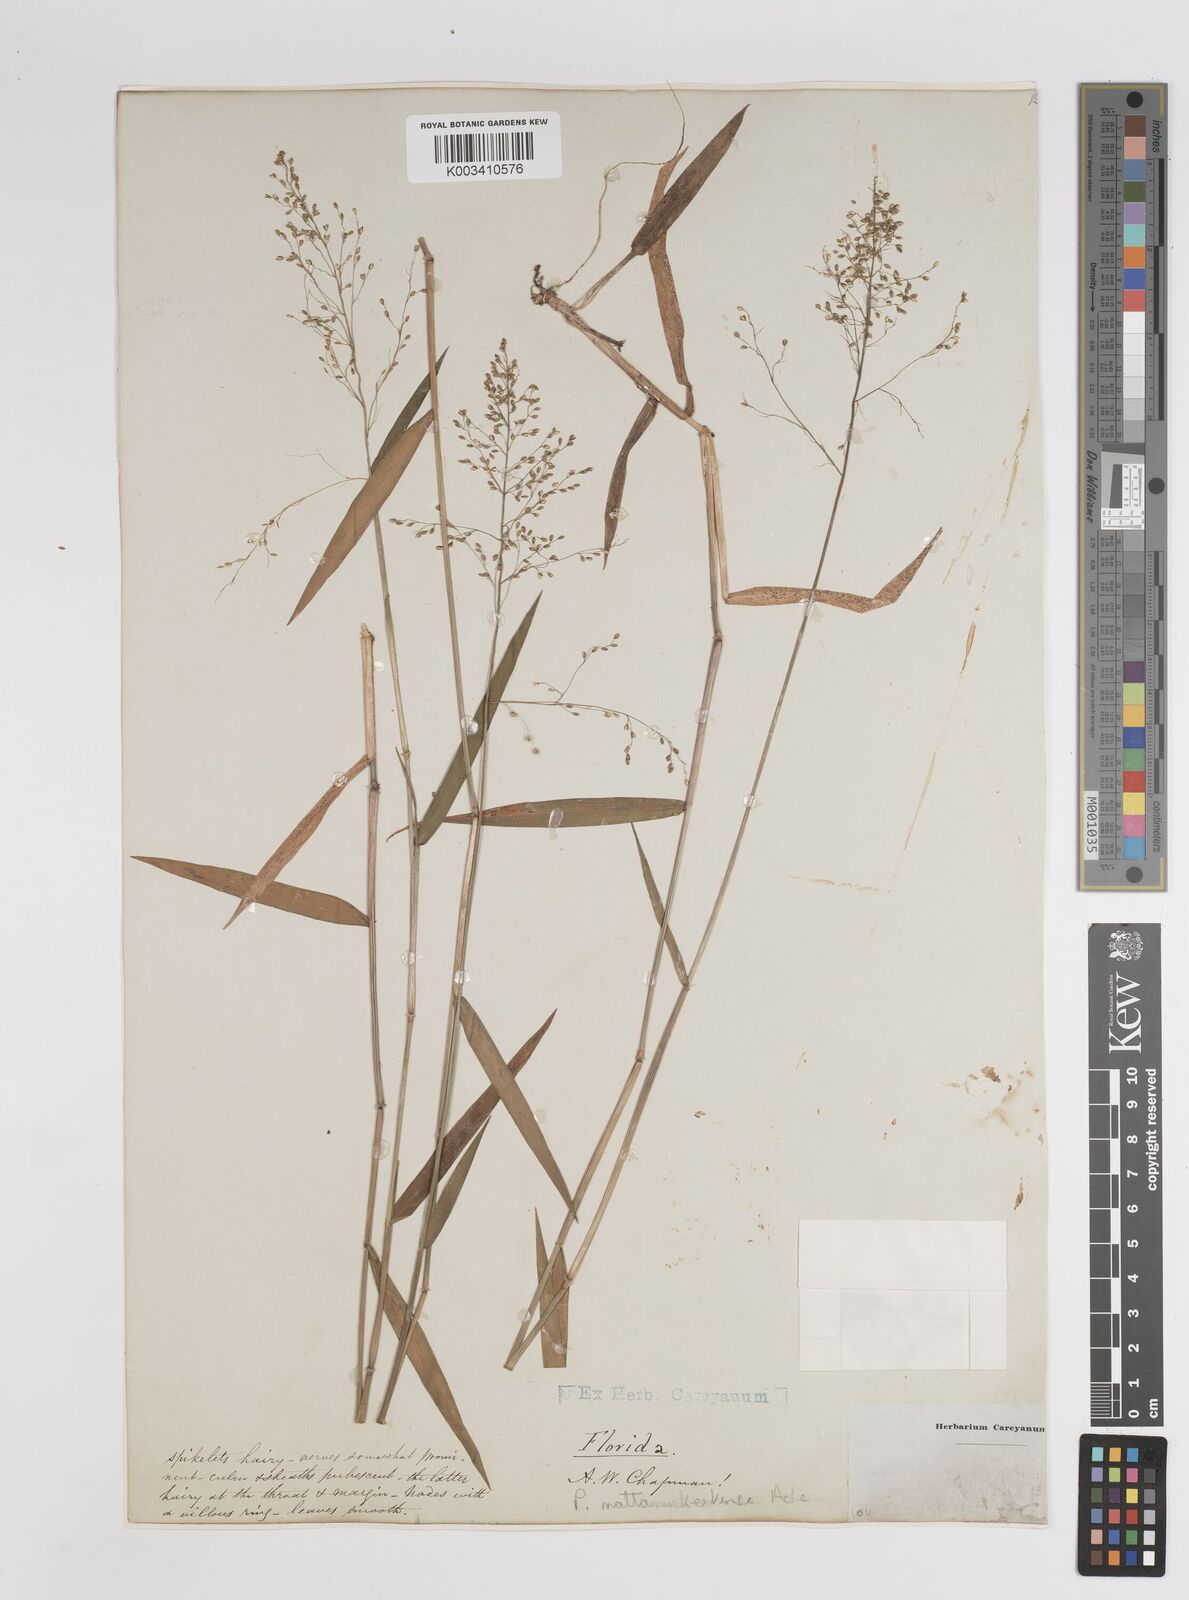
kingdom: Plantae
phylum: Tracheophyta
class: Liliopsida
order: Poales
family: Poaceae
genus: Dichanthelium
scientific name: Dichanthelium dichotomum
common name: Cypress panicgrass
